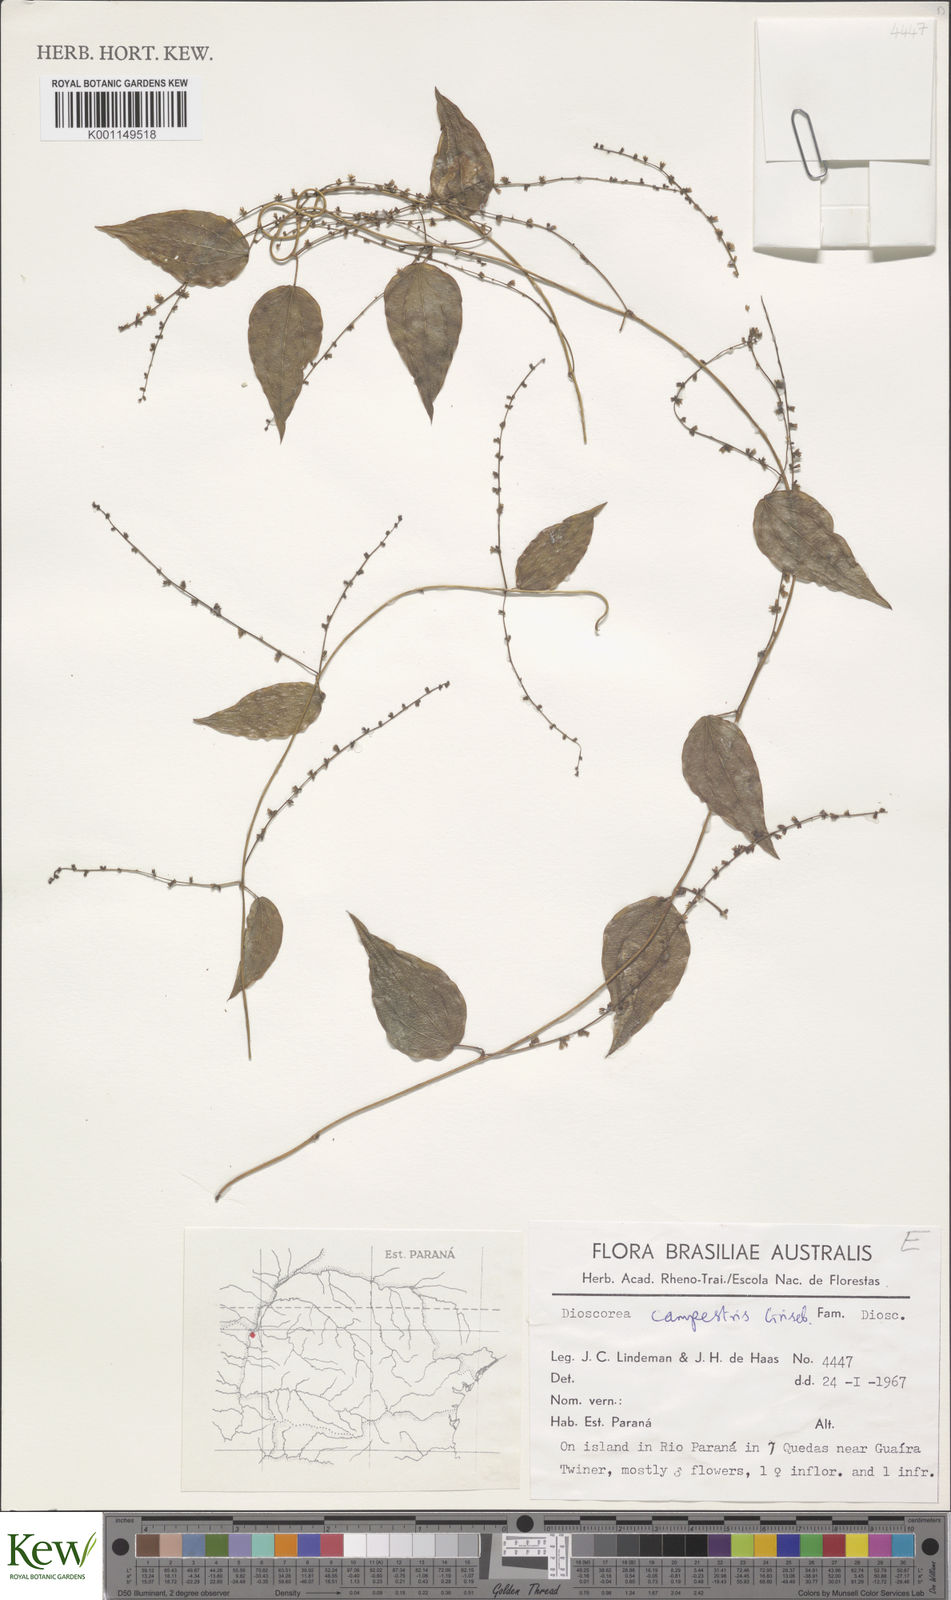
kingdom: Plantae
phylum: Tracheophyta
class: Liliopsida
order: Dioscoreales
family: Dioscoreaceae
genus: Dioscorea
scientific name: Dioscorea campestris
